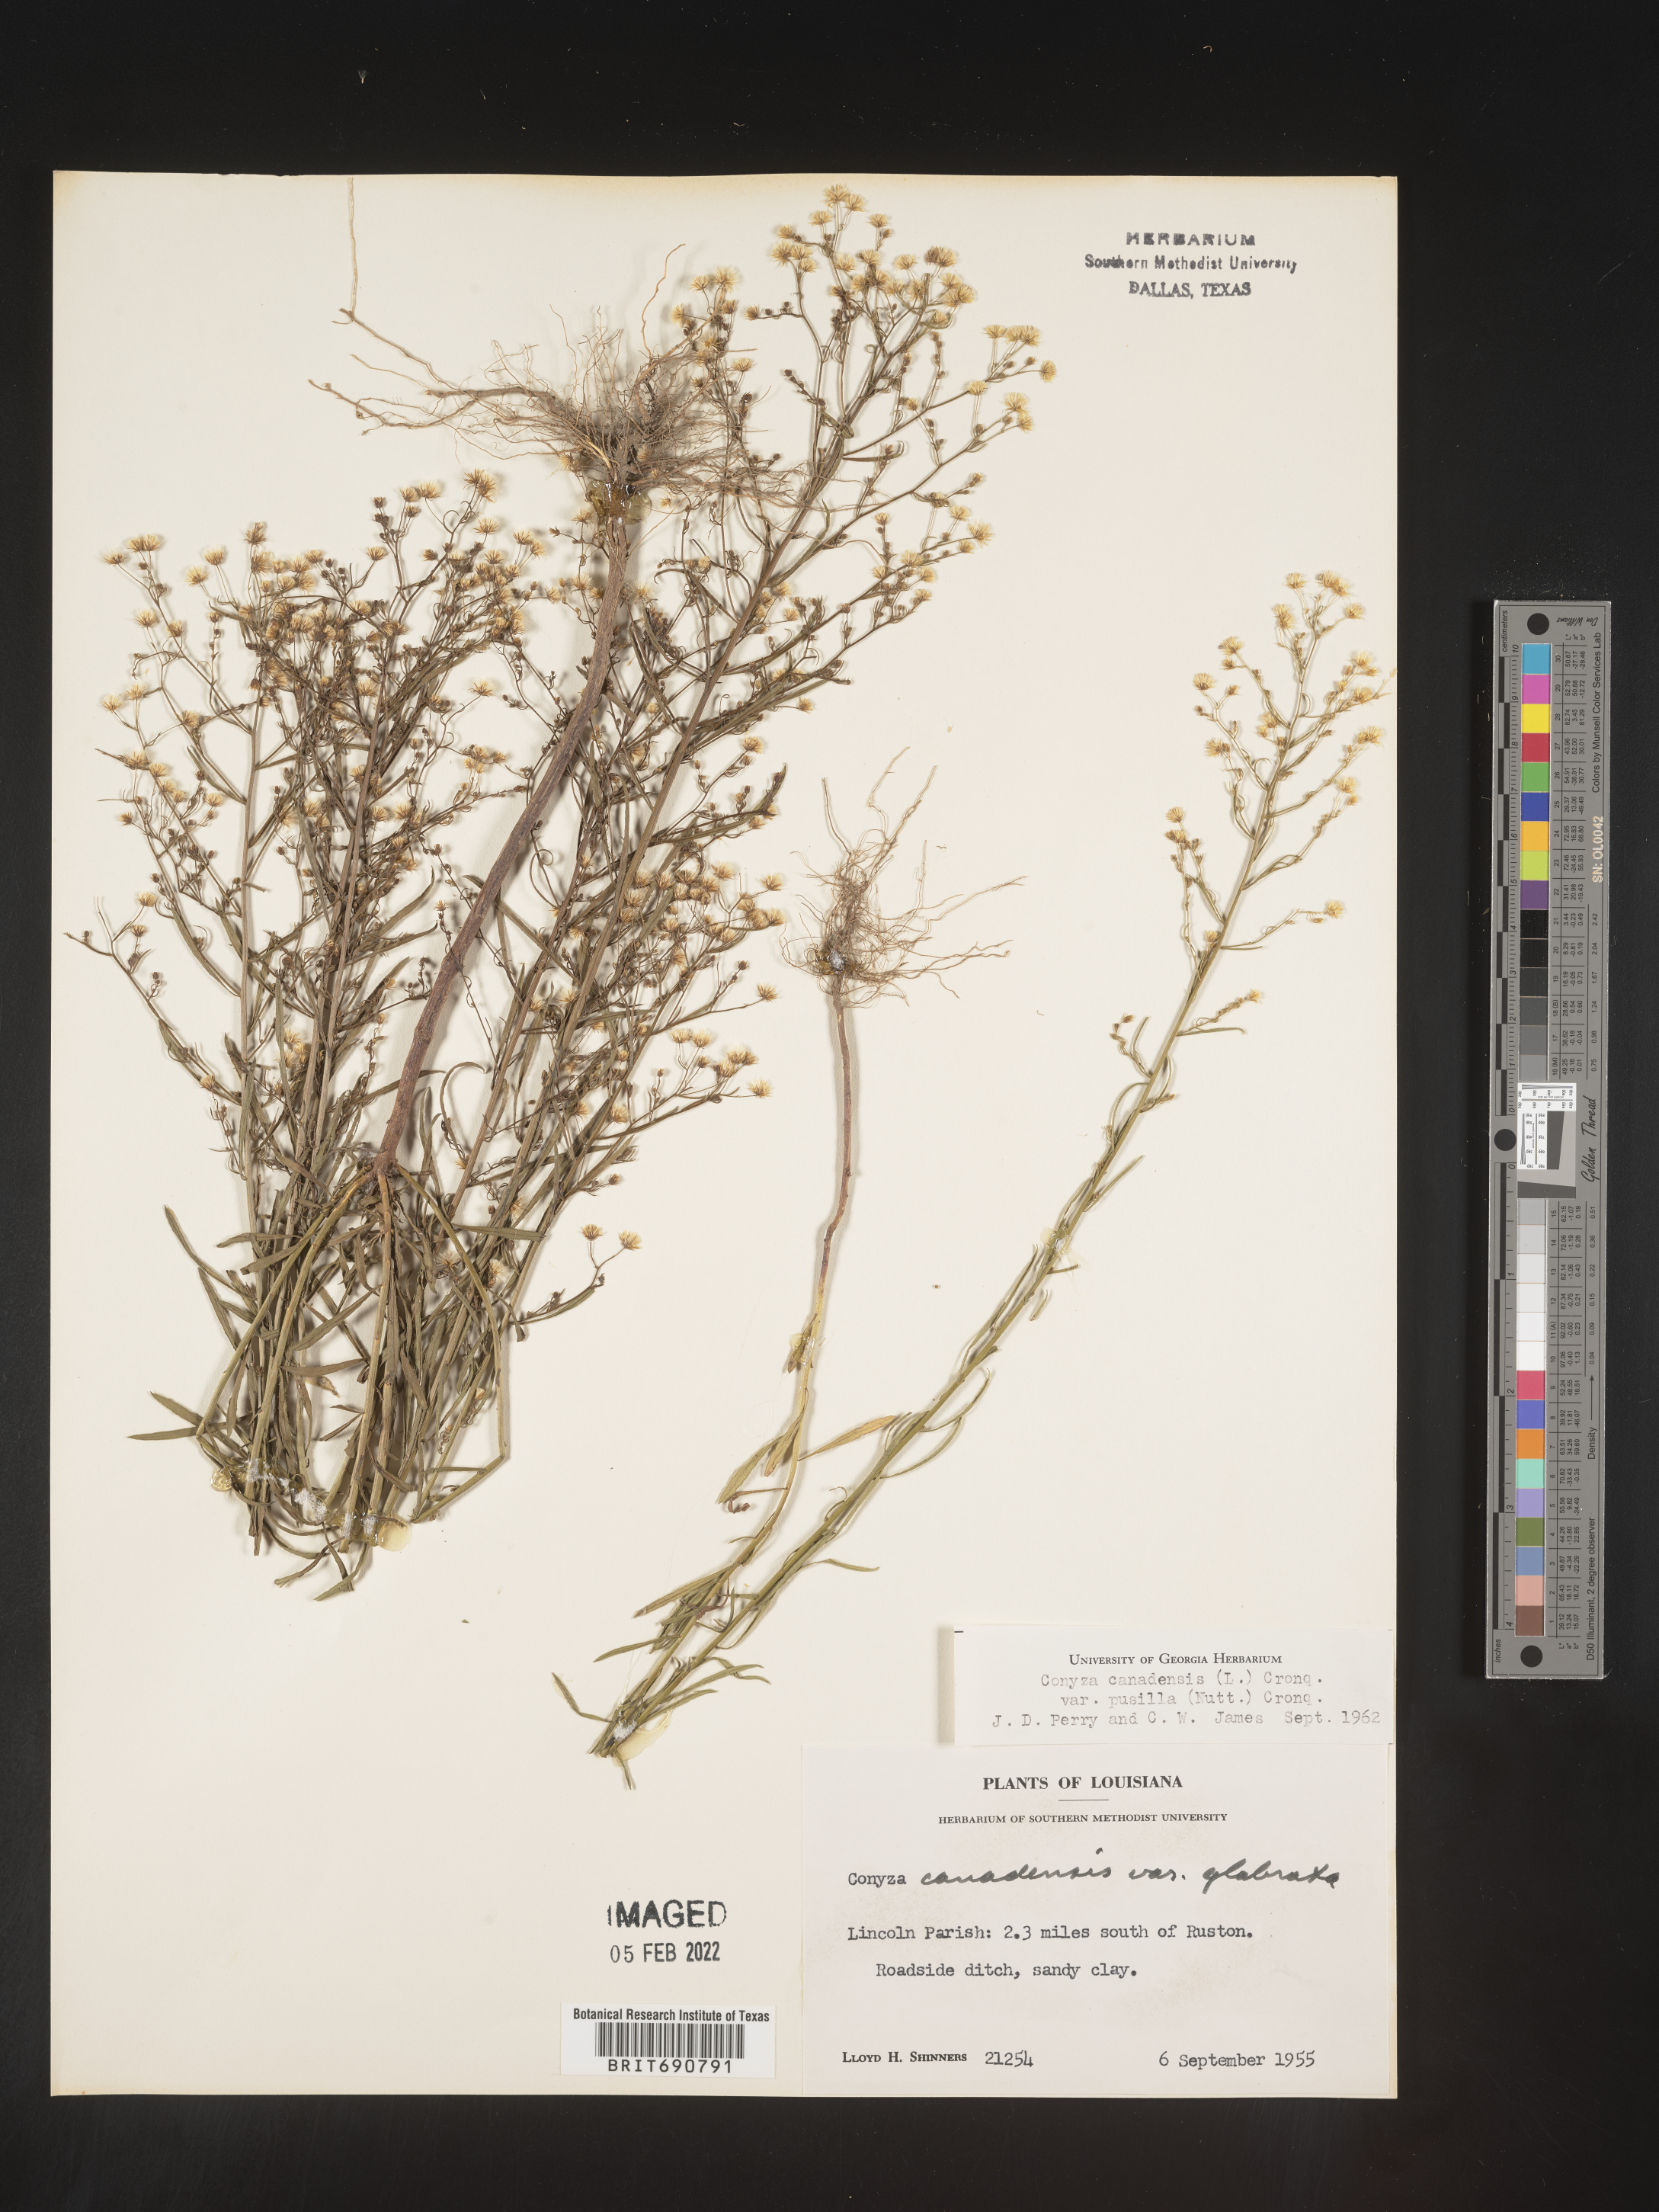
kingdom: Plantae
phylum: Tracheophyta
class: Magnoliopsida
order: Asterales
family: Asteraceae
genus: Erigeron
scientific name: Erigeron canadensis
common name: Canadian fleabane
